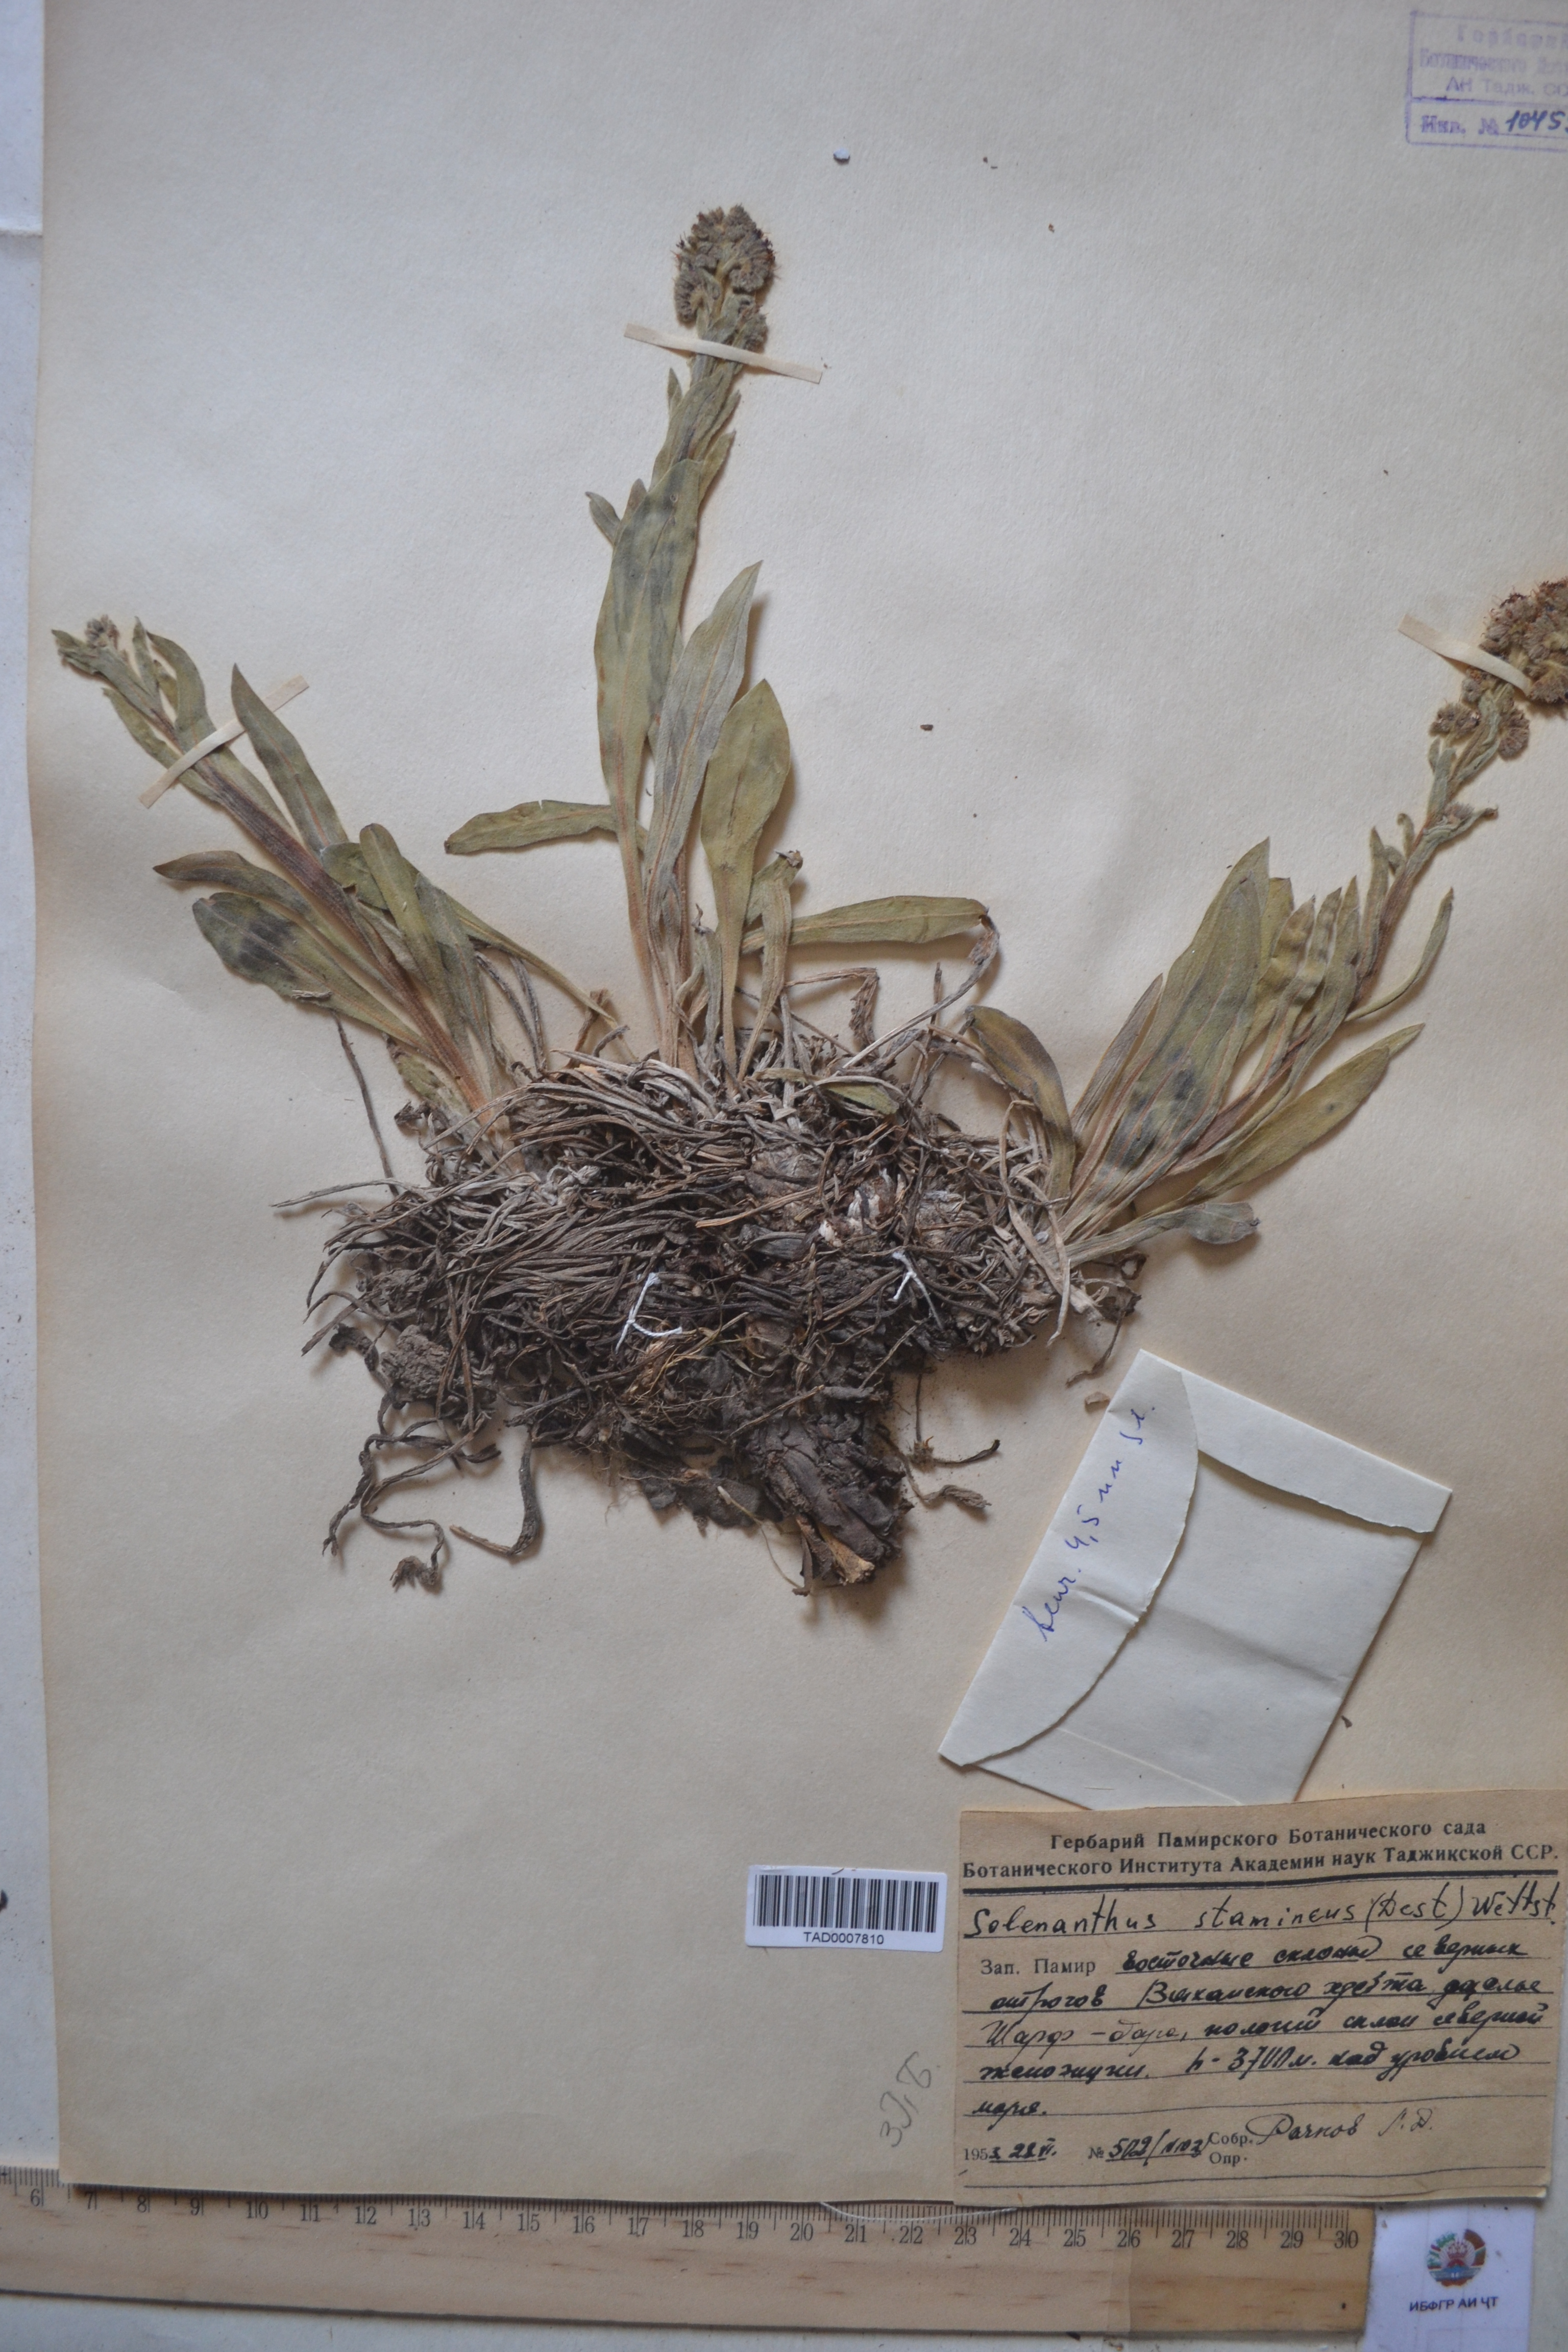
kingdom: Plantae
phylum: Tracheophyta
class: Magnoliopsida
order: Boraginales
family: Boraginaceae
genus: Solenanthus
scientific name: Solenanthus stamineus
